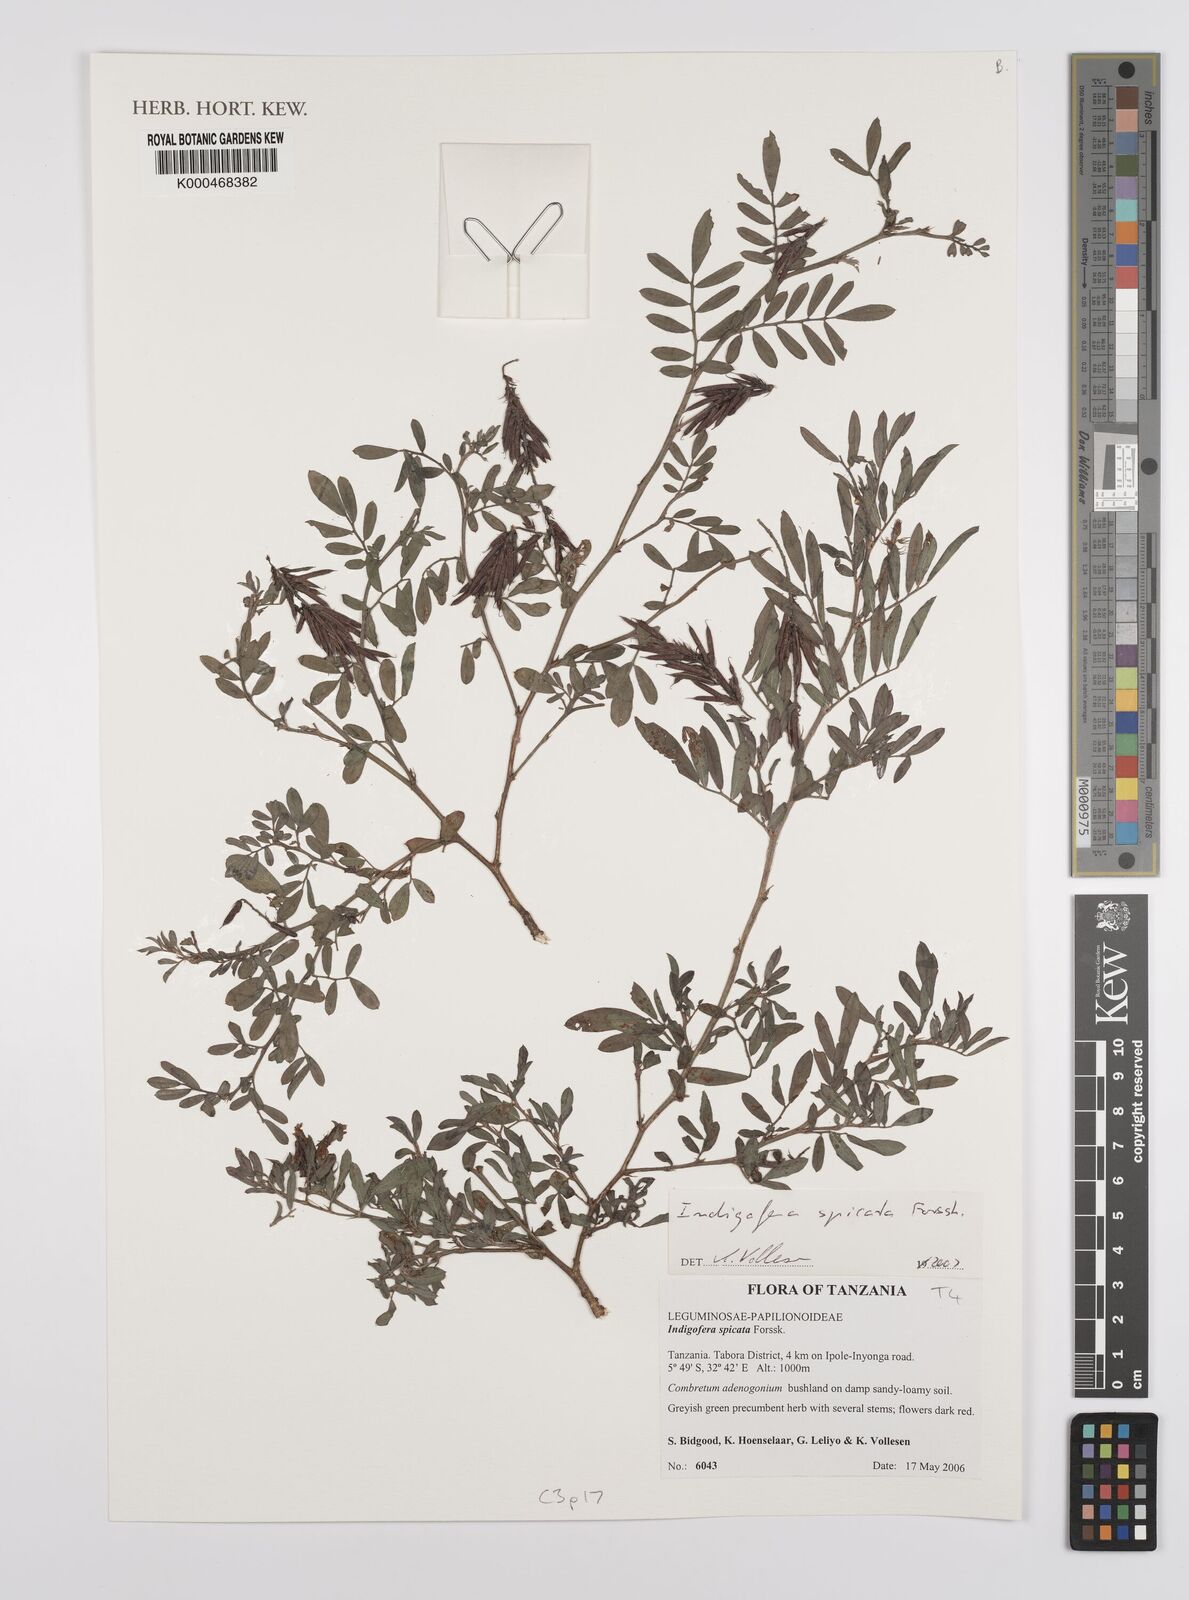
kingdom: Plantae
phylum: Tracheophyta
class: Magnoliopsida
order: Fabales
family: Fabaceae
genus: Indigofera
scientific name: Indigofera spicata
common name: Creeping indigo
